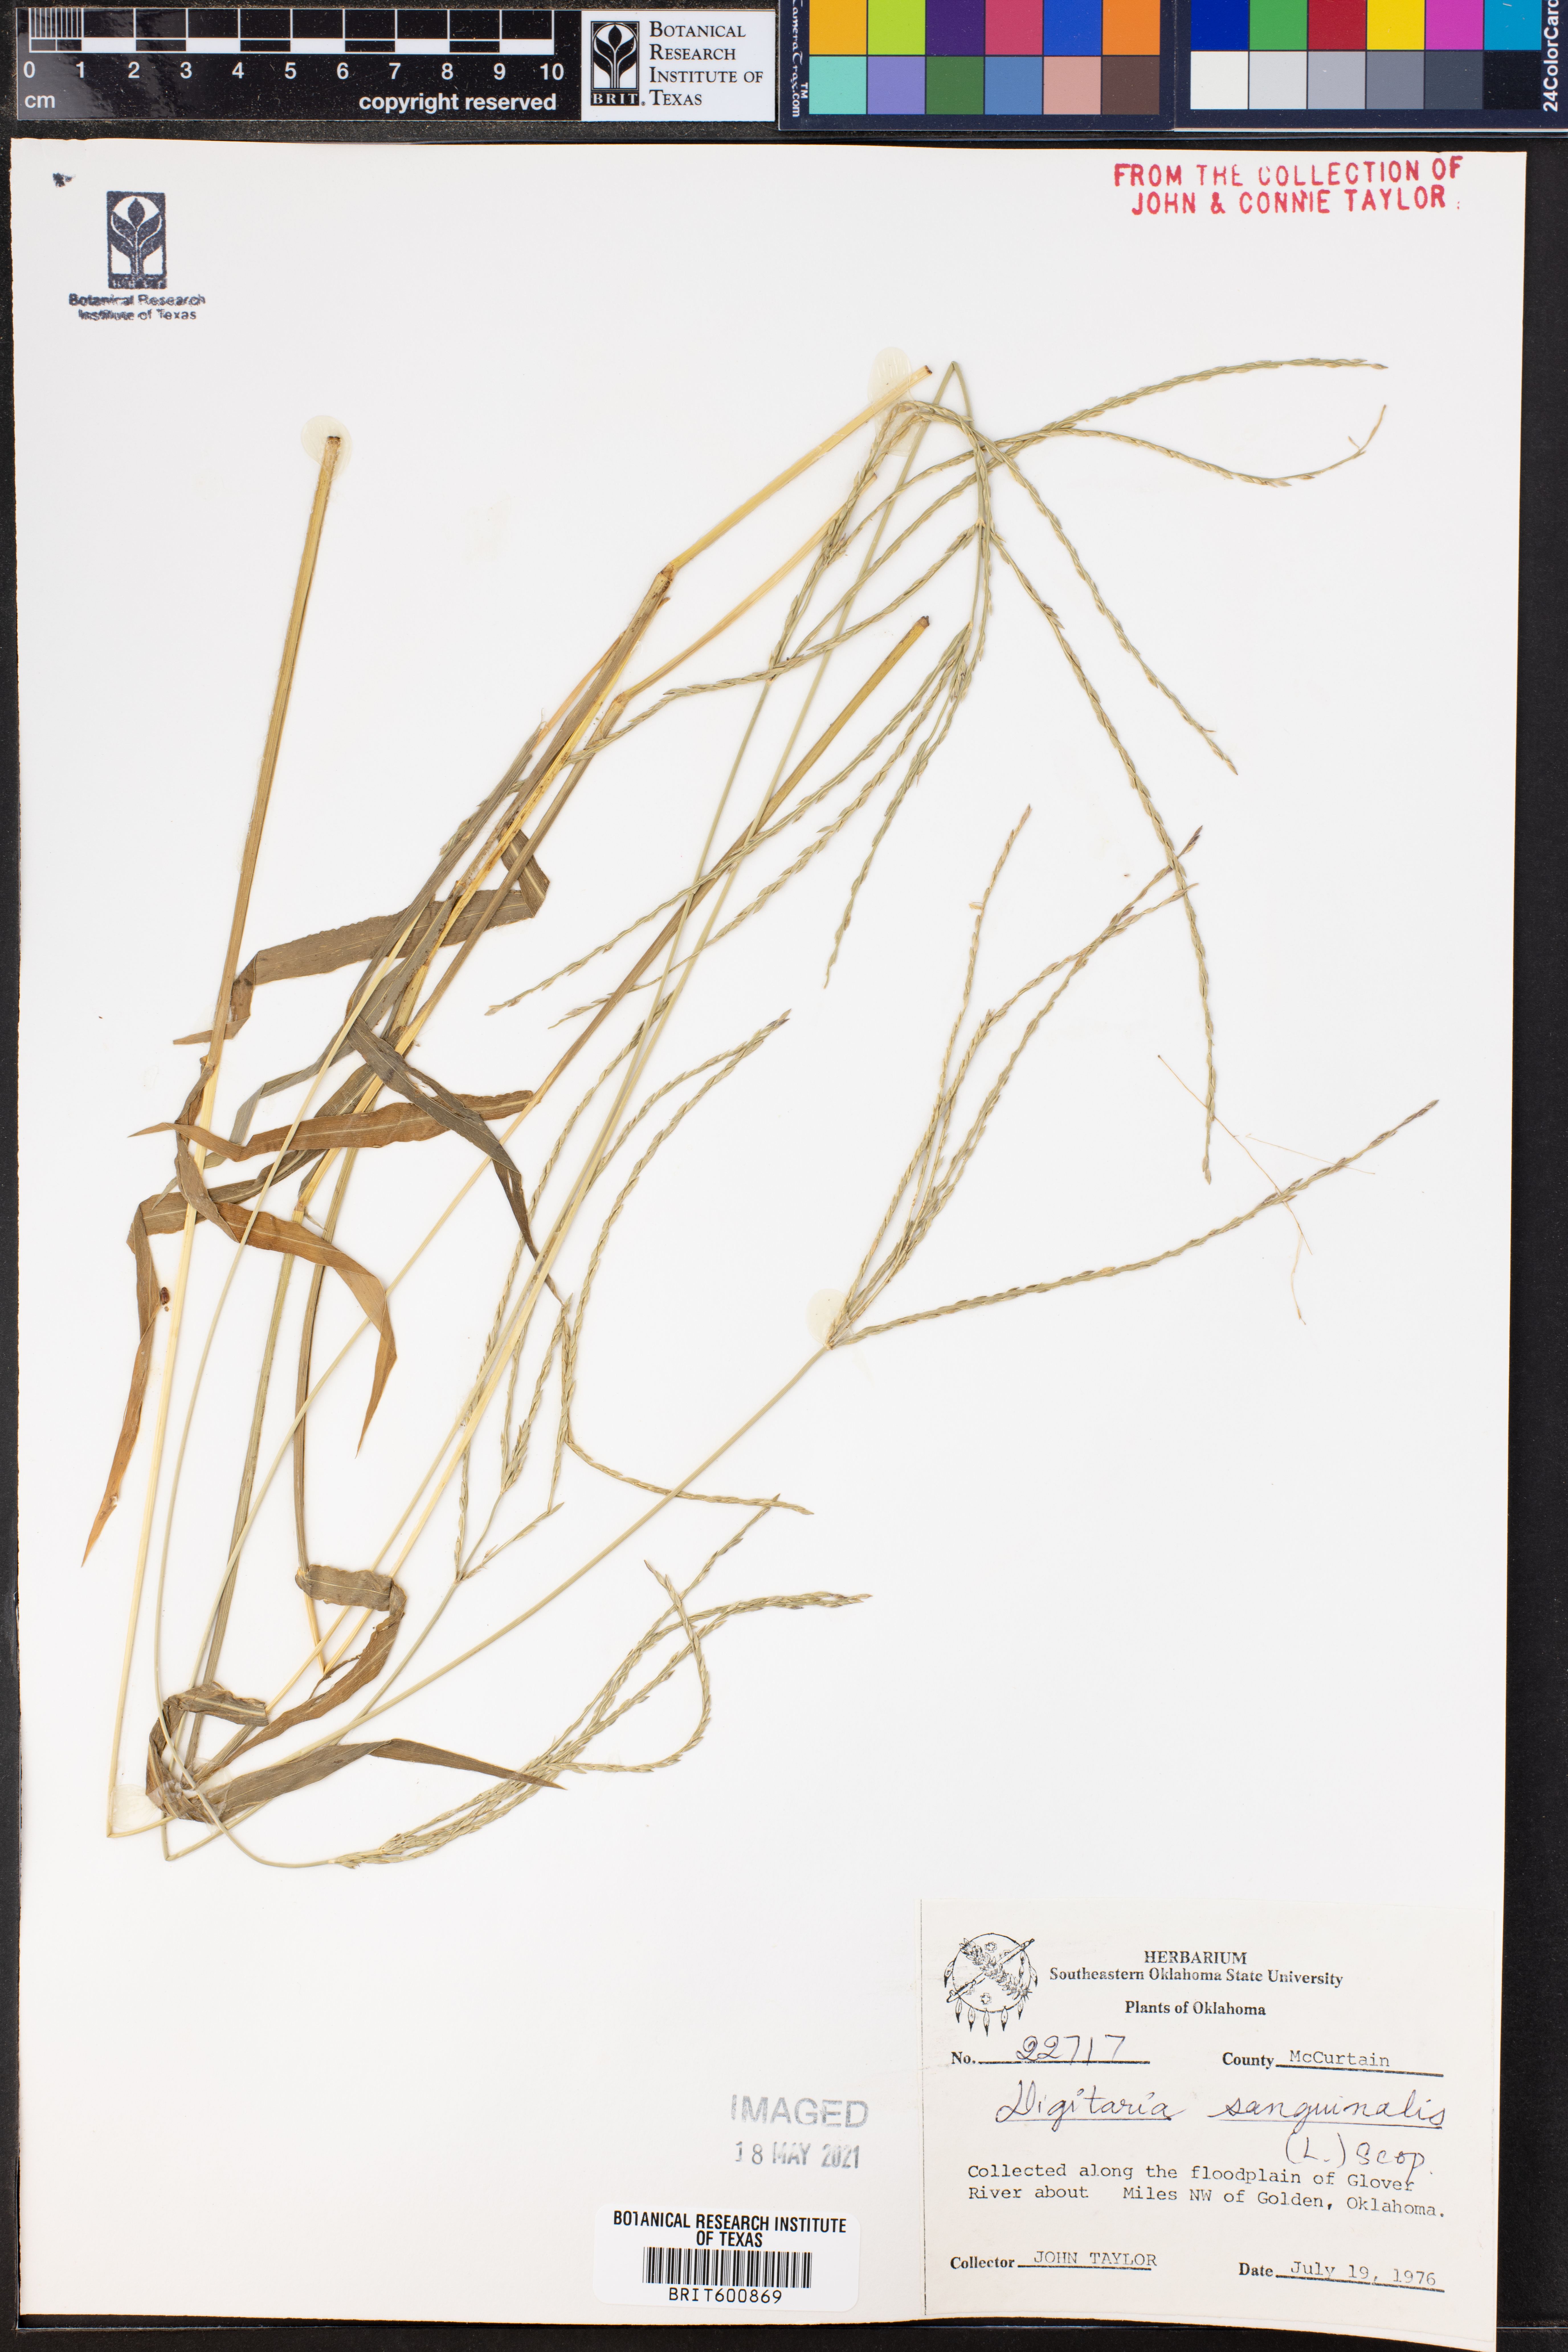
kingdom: Plantae
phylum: Tracheophyta
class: Liliopsida
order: Poales
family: Poaceae
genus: Digitaria
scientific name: Digitaria sanguinalis
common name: Hairy crabgrass
